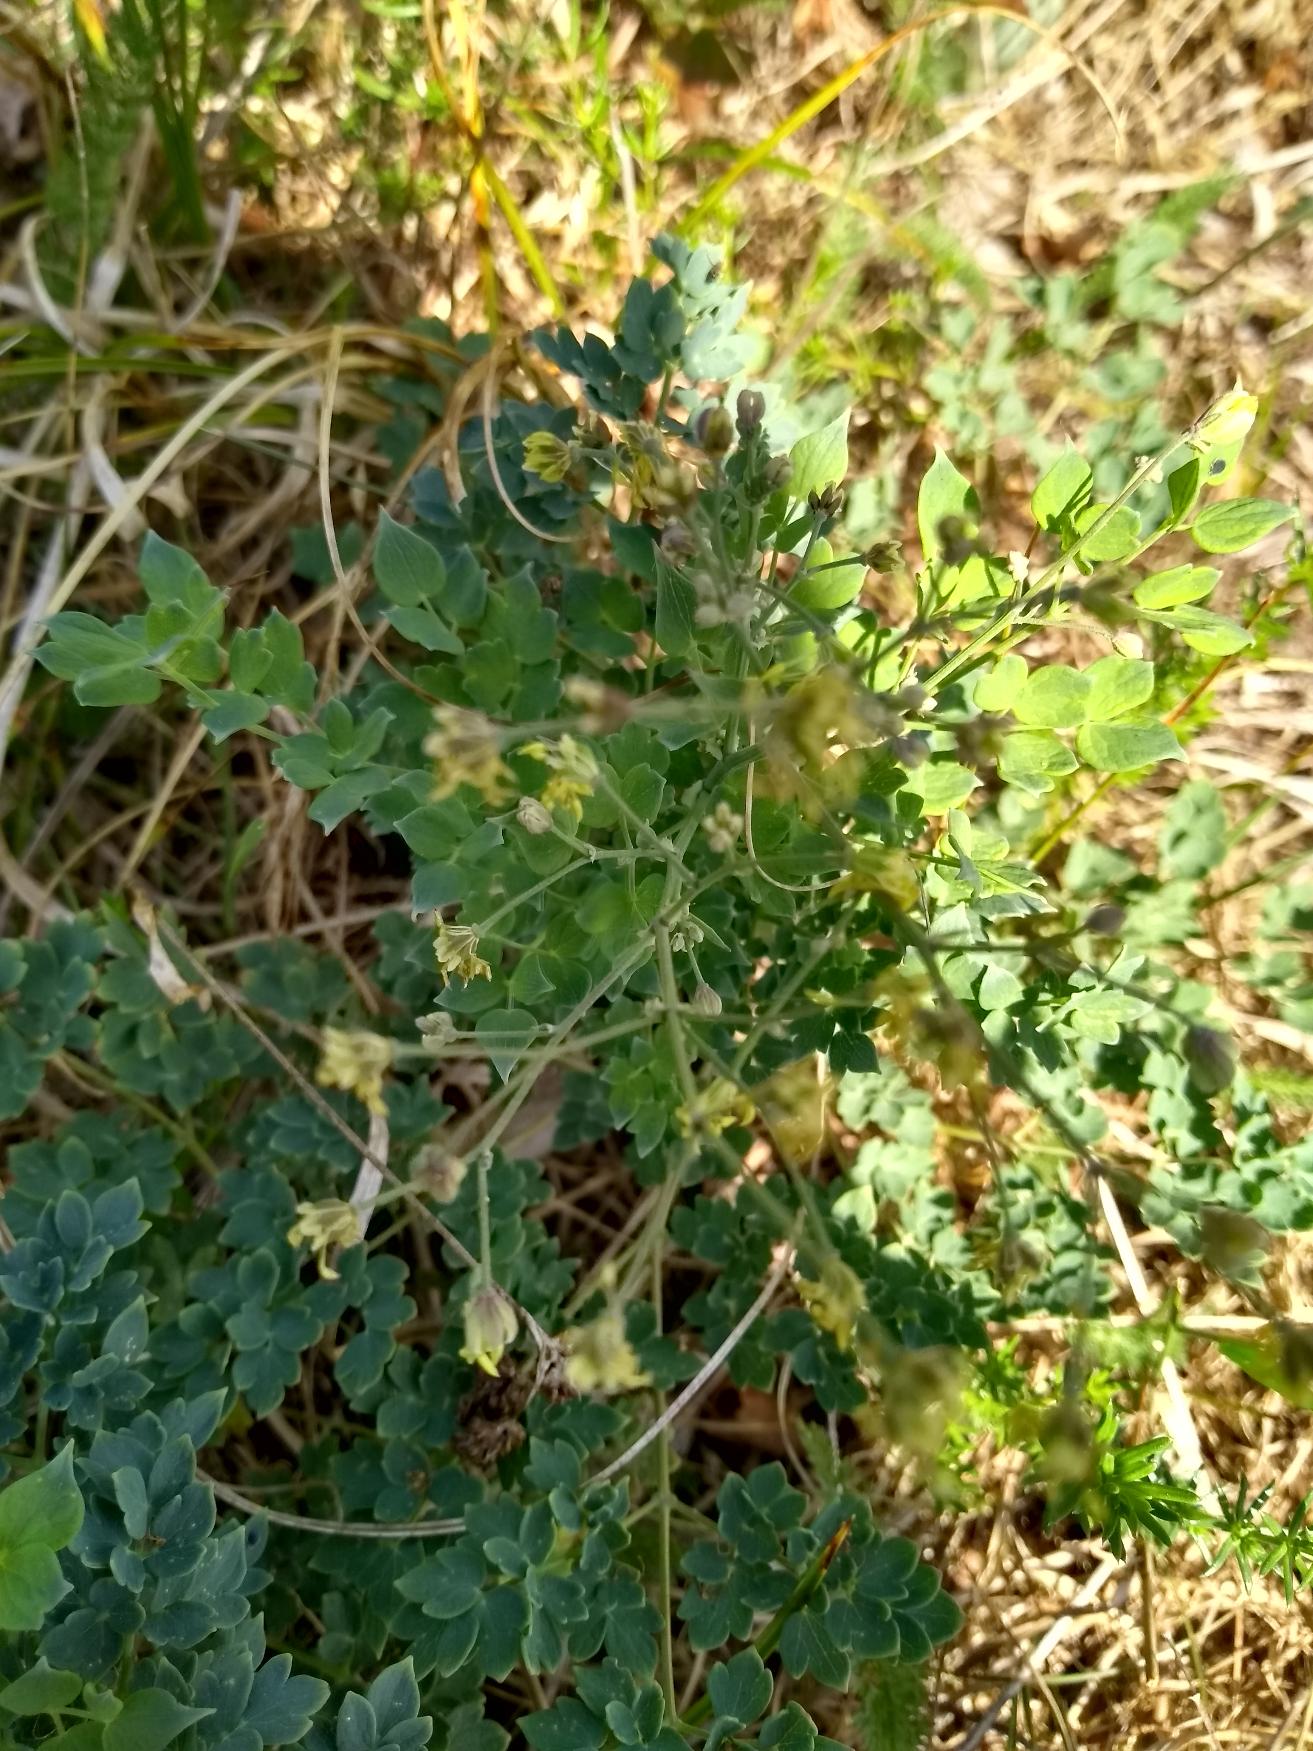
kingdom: Plantae
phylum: Tracheophyta
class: Magnoliopsida
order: Ranunculales
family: Ranunculaceae
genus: Thalictrum
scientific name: Thalictrum minus
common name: Liden frøstjerne
